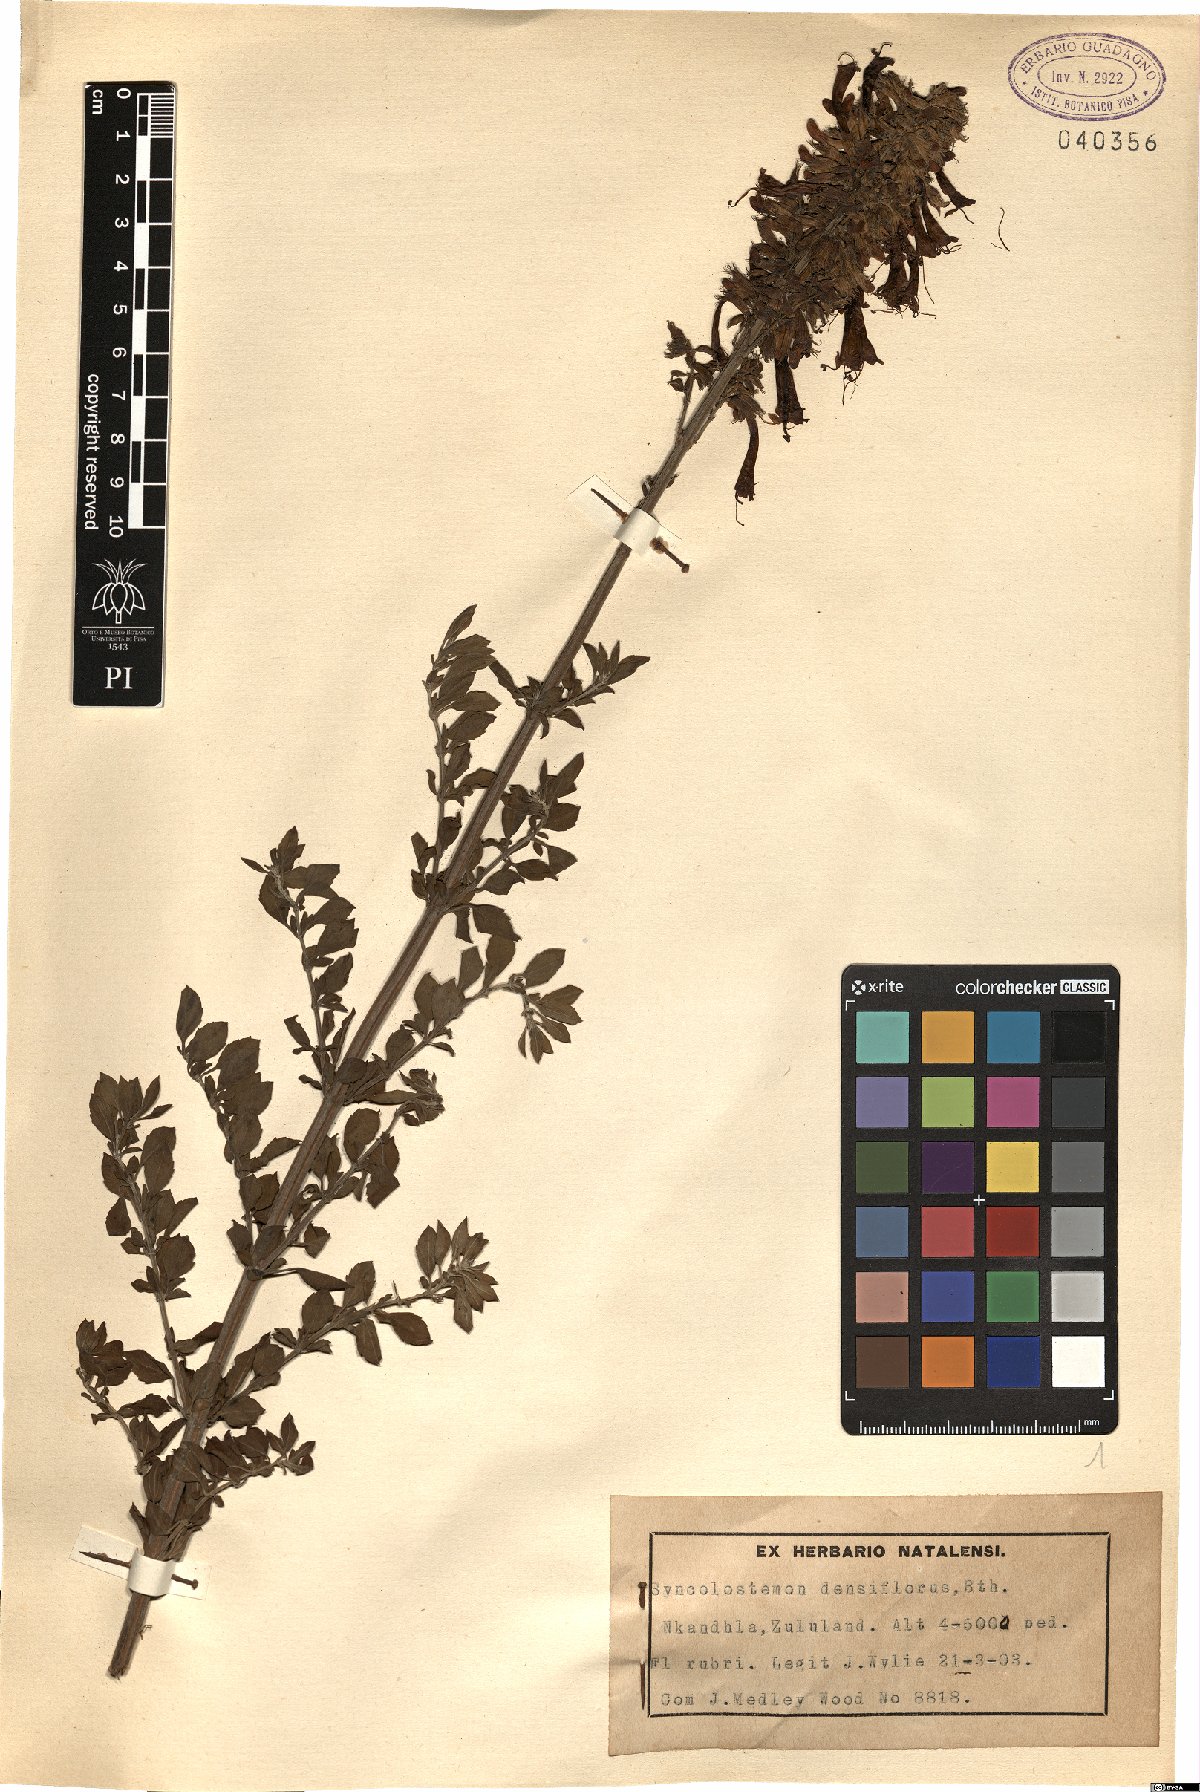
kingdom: Plantae
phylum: Tracheophyta
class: Magnoliopsida
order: Lamiales
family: Lamiaceae
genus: Syncolostemon
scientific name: Syncolostemon densiflorus
